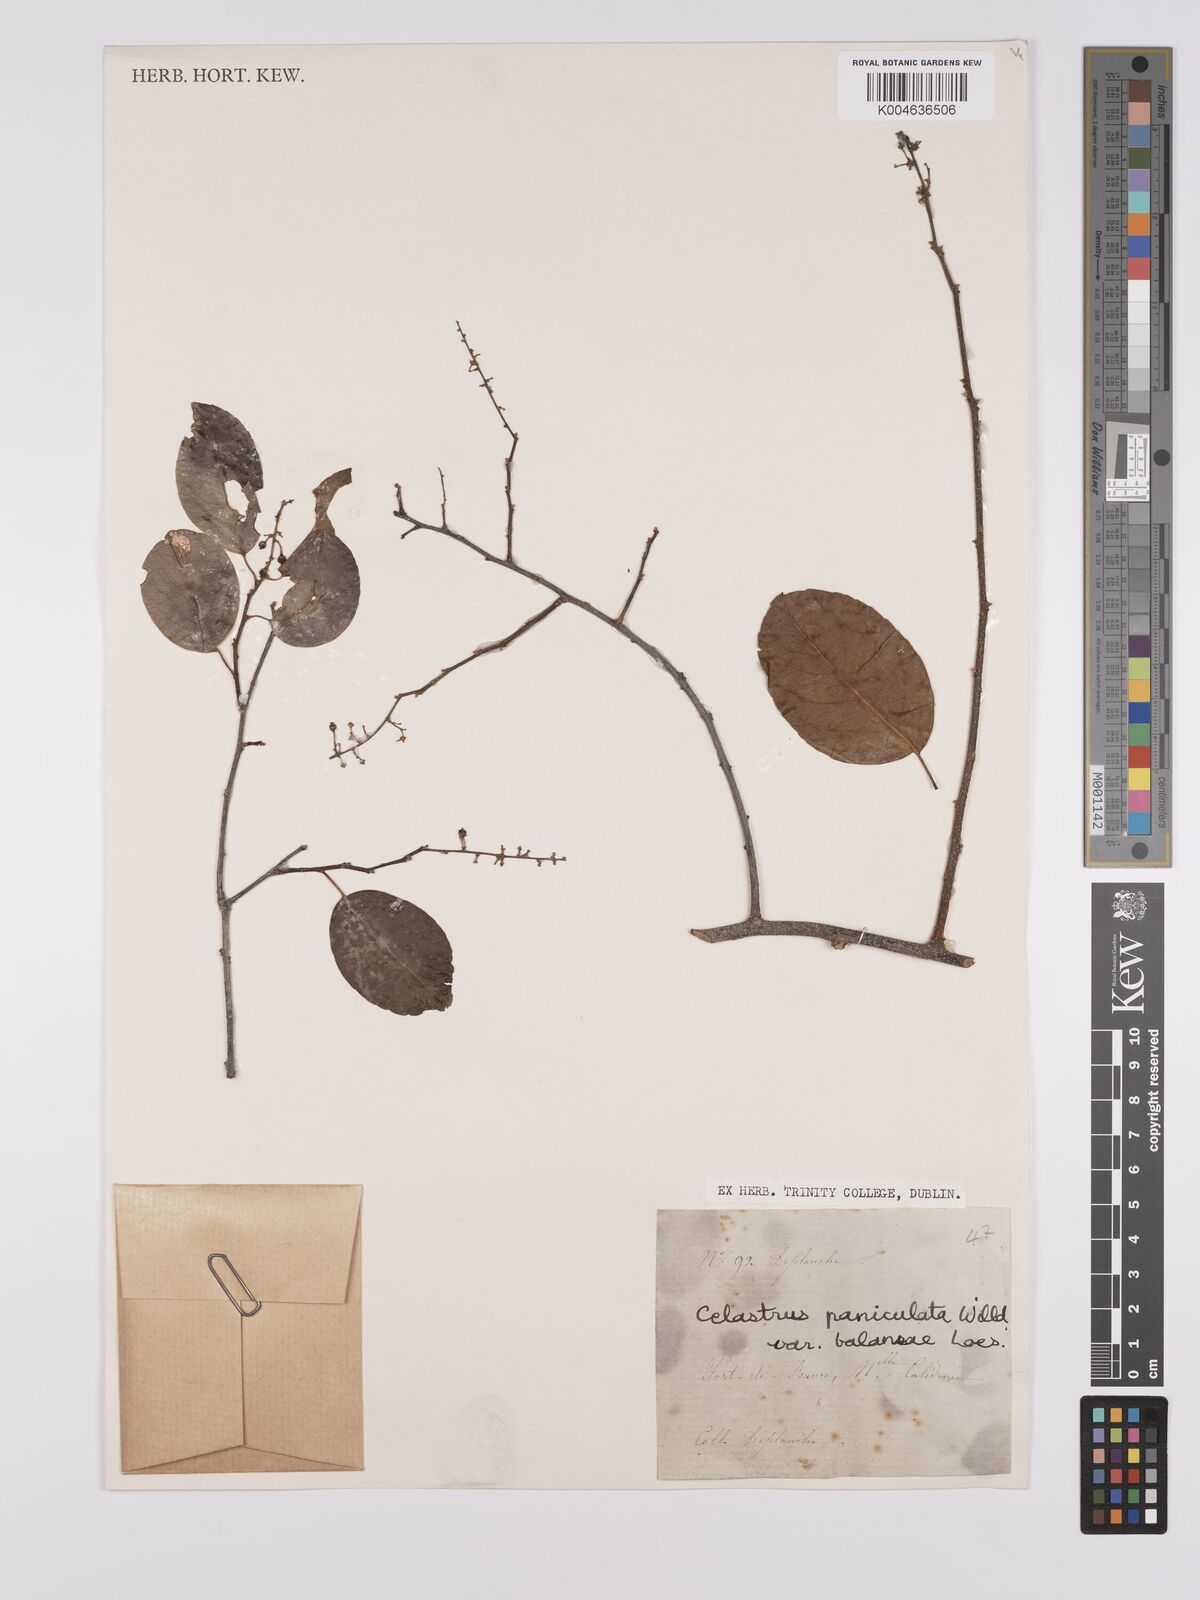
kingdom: Plantae
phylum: Tracheophyta
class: Magnoliopsida
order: Celastrales
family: Celastraceae
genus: Celastrus
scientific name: Celastrus paniculatus
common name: Oriental bittersweet; staff vine
